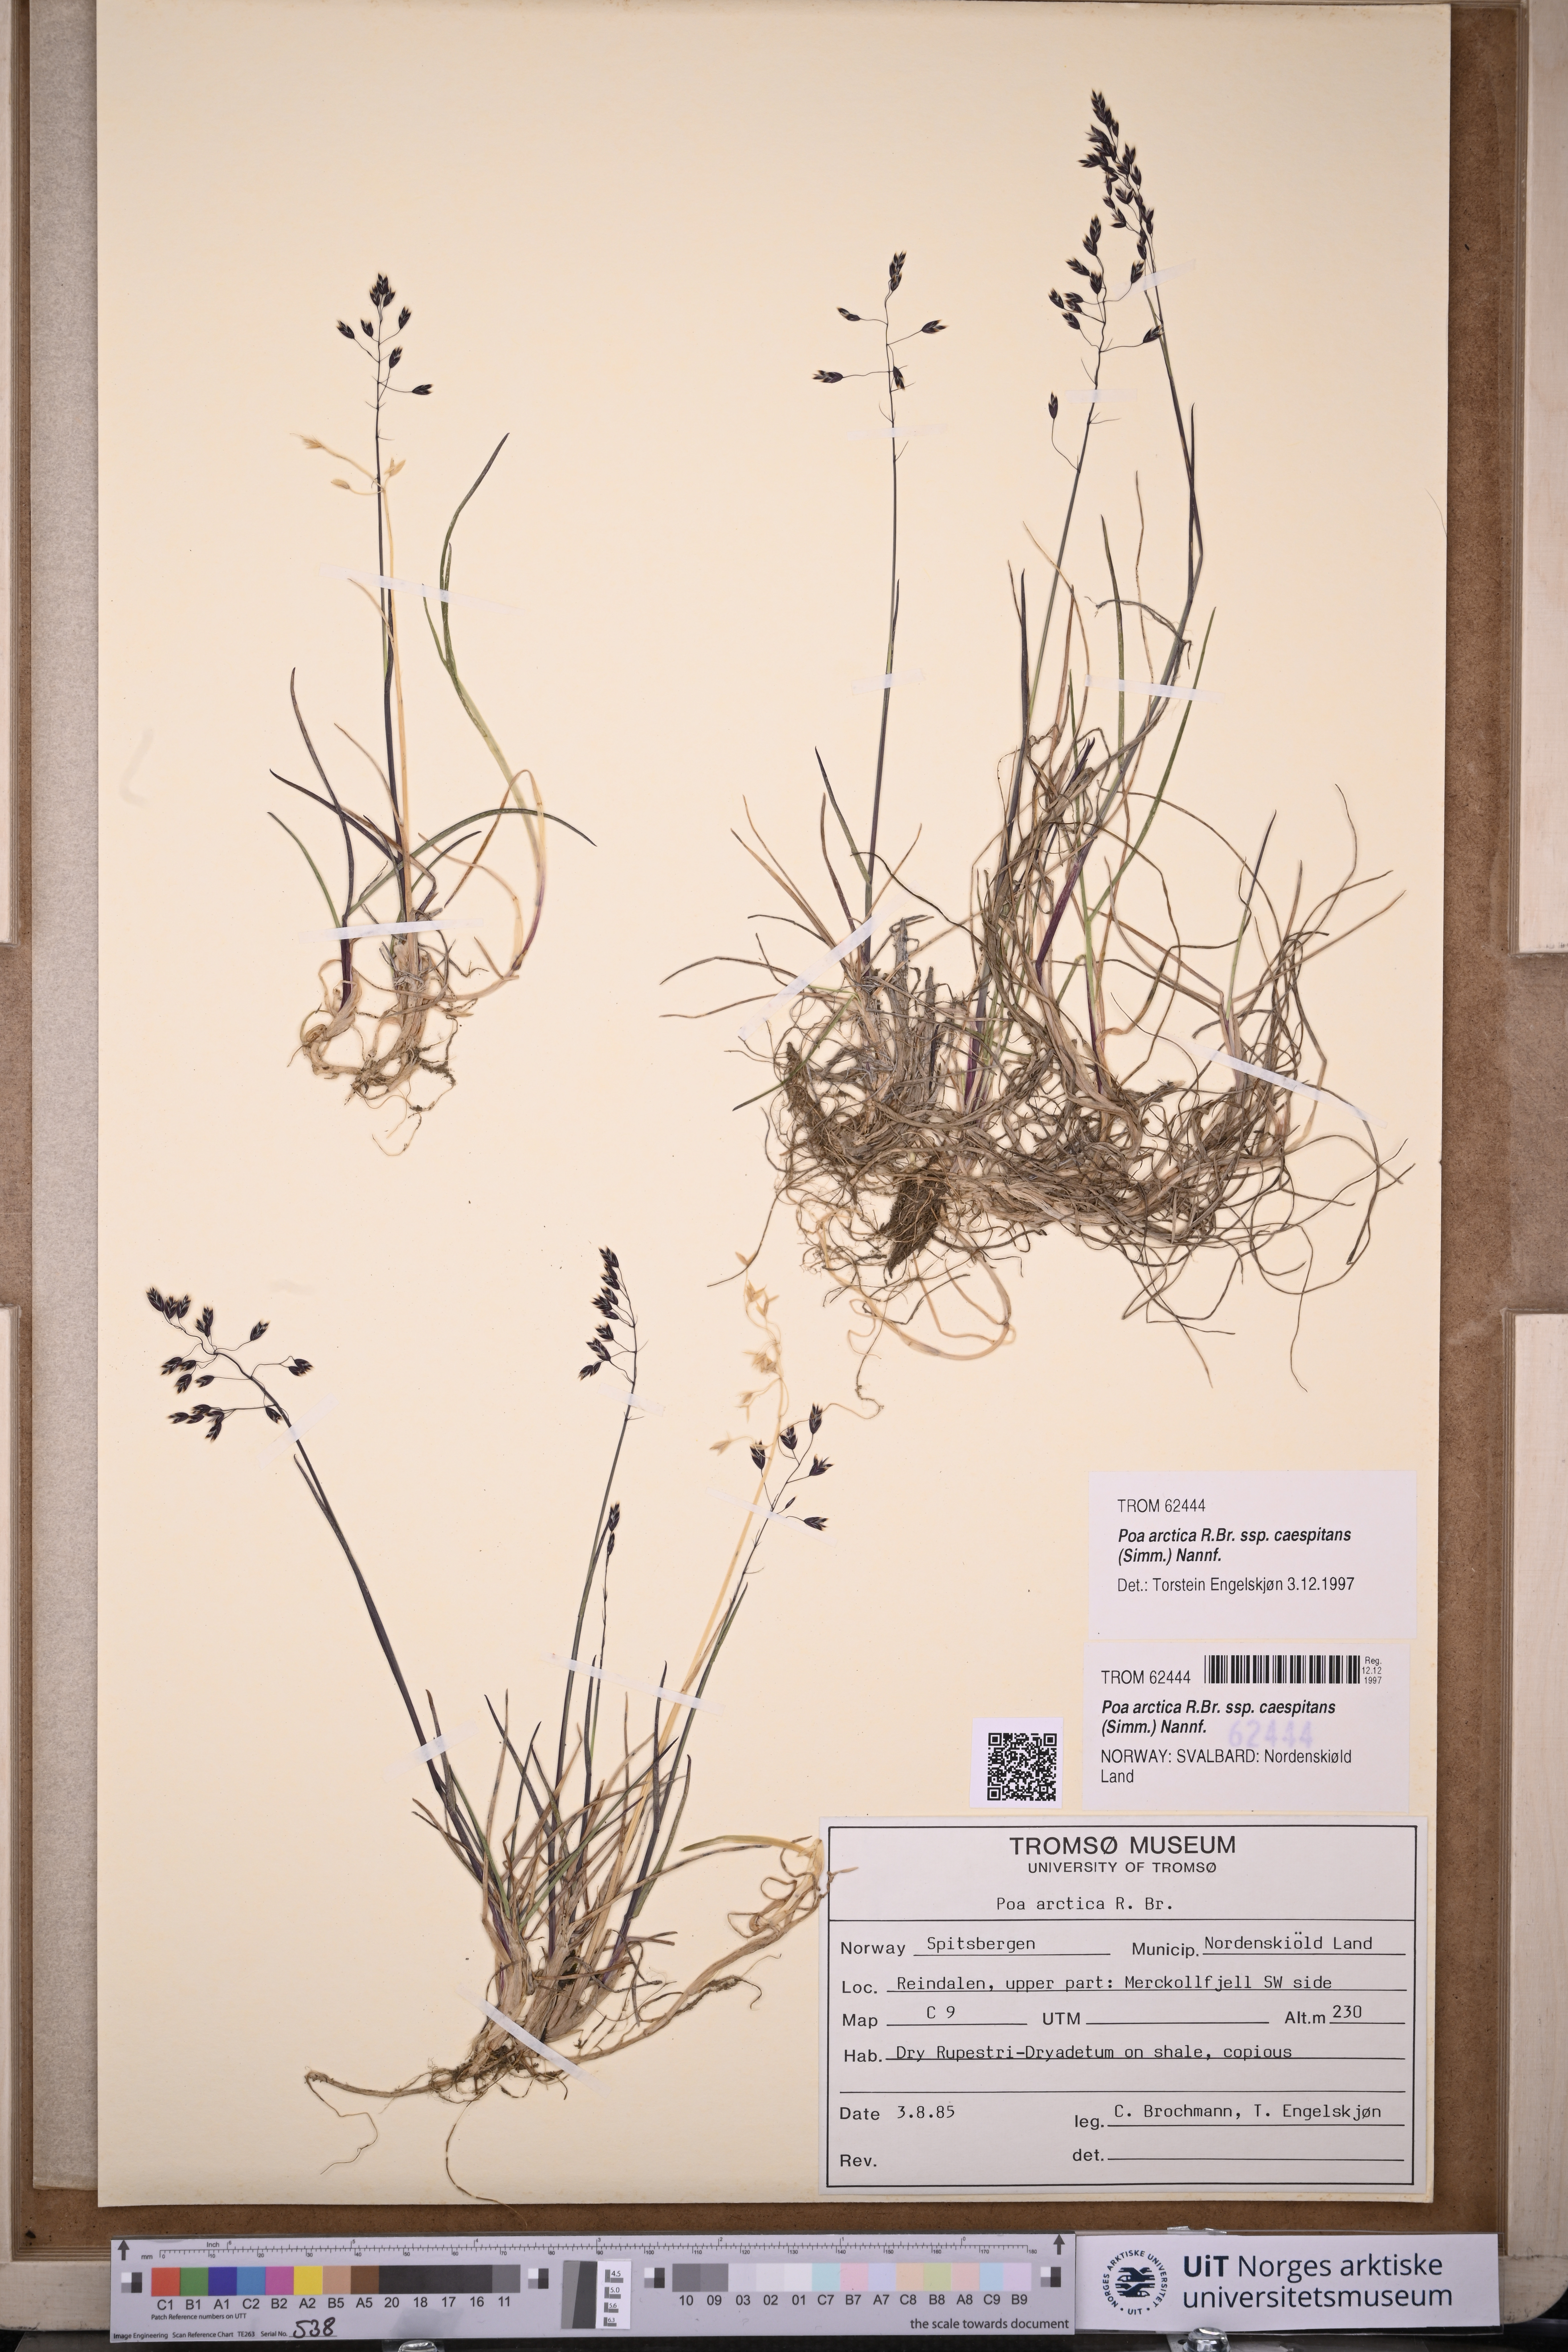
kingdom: Plantae
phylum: Tracheophyta
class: Liliopsida
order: Poales
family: Poaceae
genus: Poa
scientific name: Poa tolmatchewii
